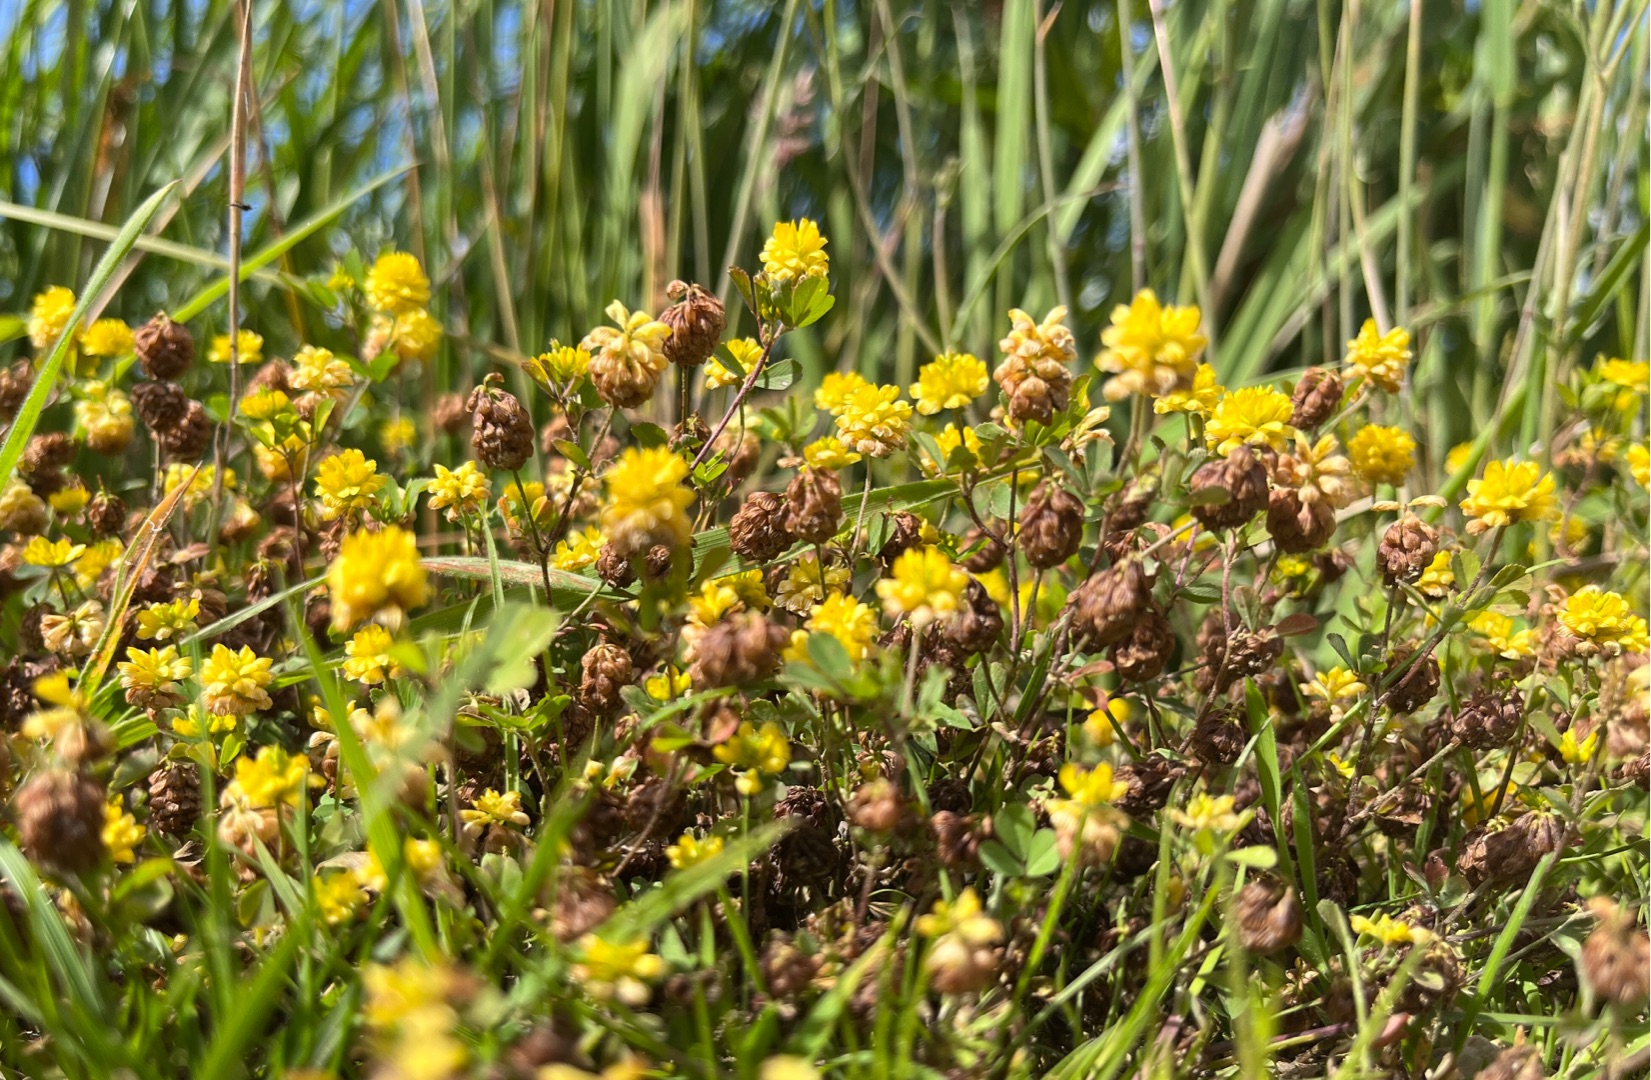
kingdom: Plantae
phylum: Tracheophyta
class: Magnoliopsida
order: Fabales
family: Fabaceae
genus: Trifolium
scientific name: Trifolium campestre
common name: Gul kløver
